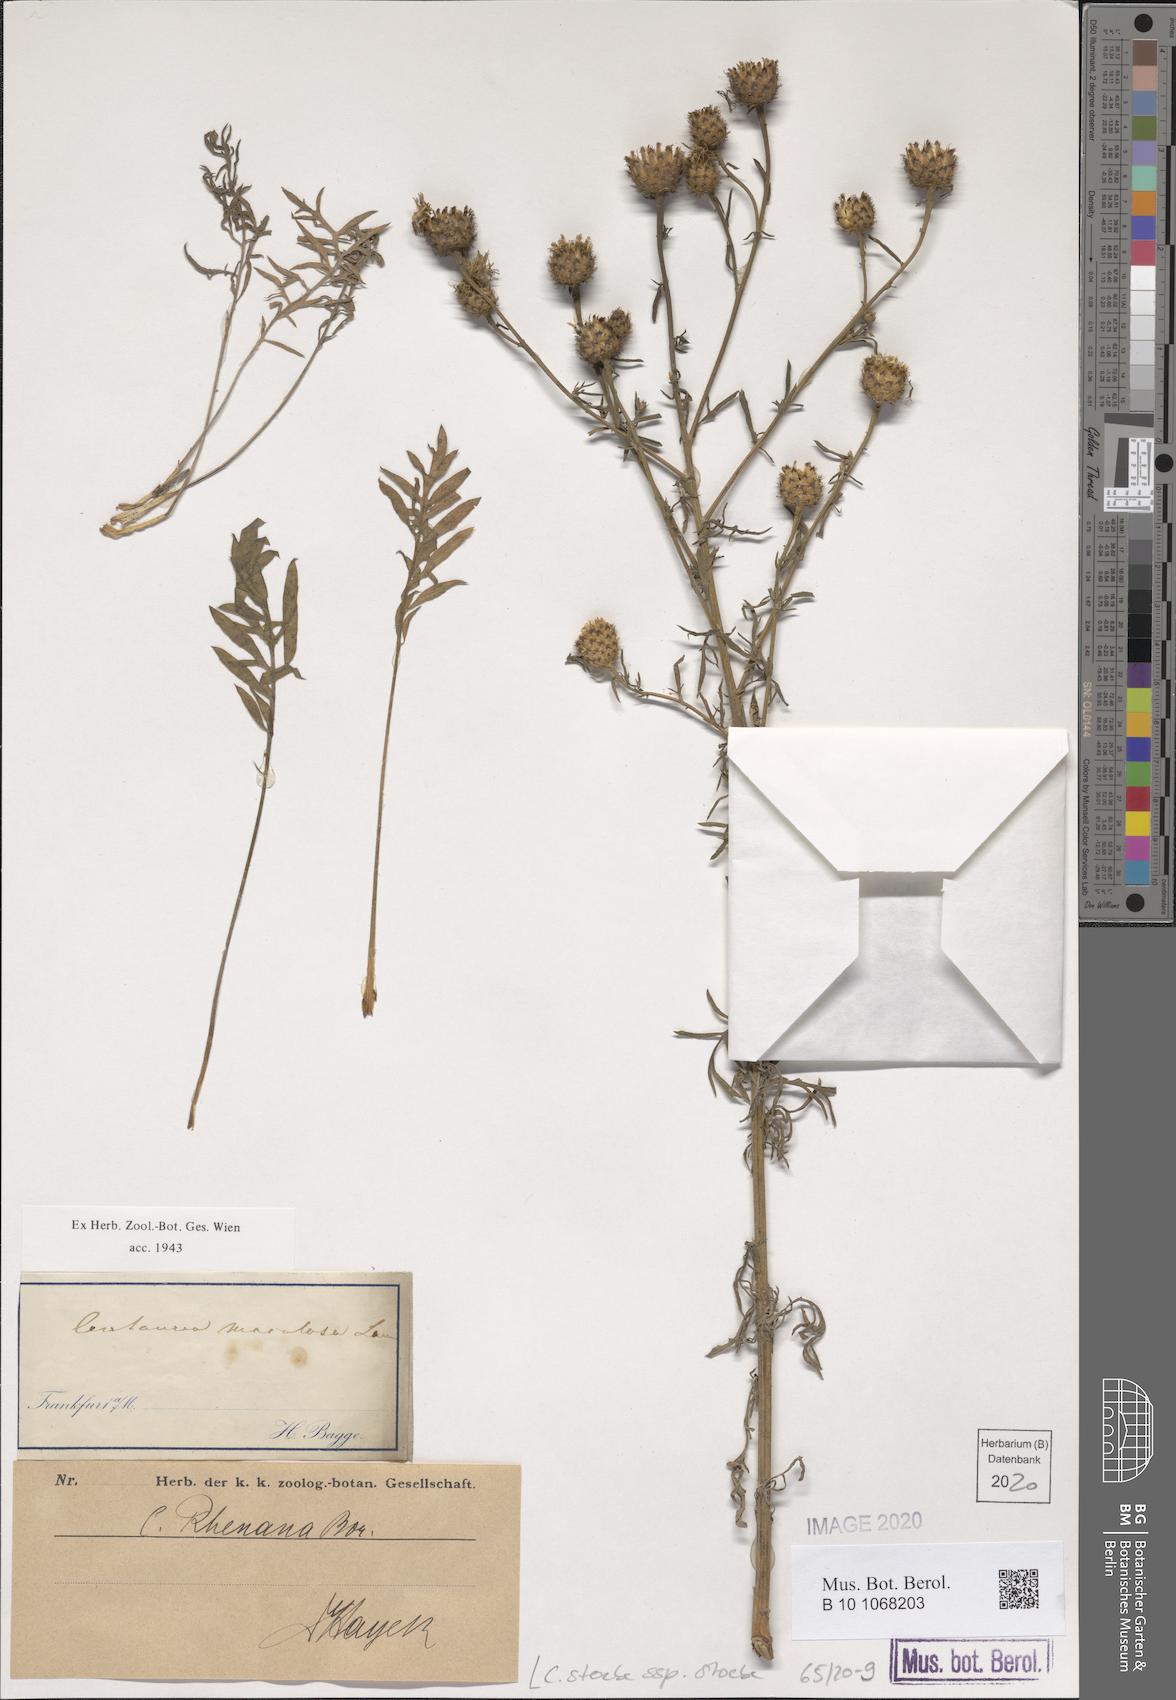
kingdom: Plantae
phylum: Tracheophyta
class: Magnoliopsida
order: Asterales
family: Asteraceae
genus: Centaurea
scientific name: Centaurea stoebe
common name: Spotted knapweed
